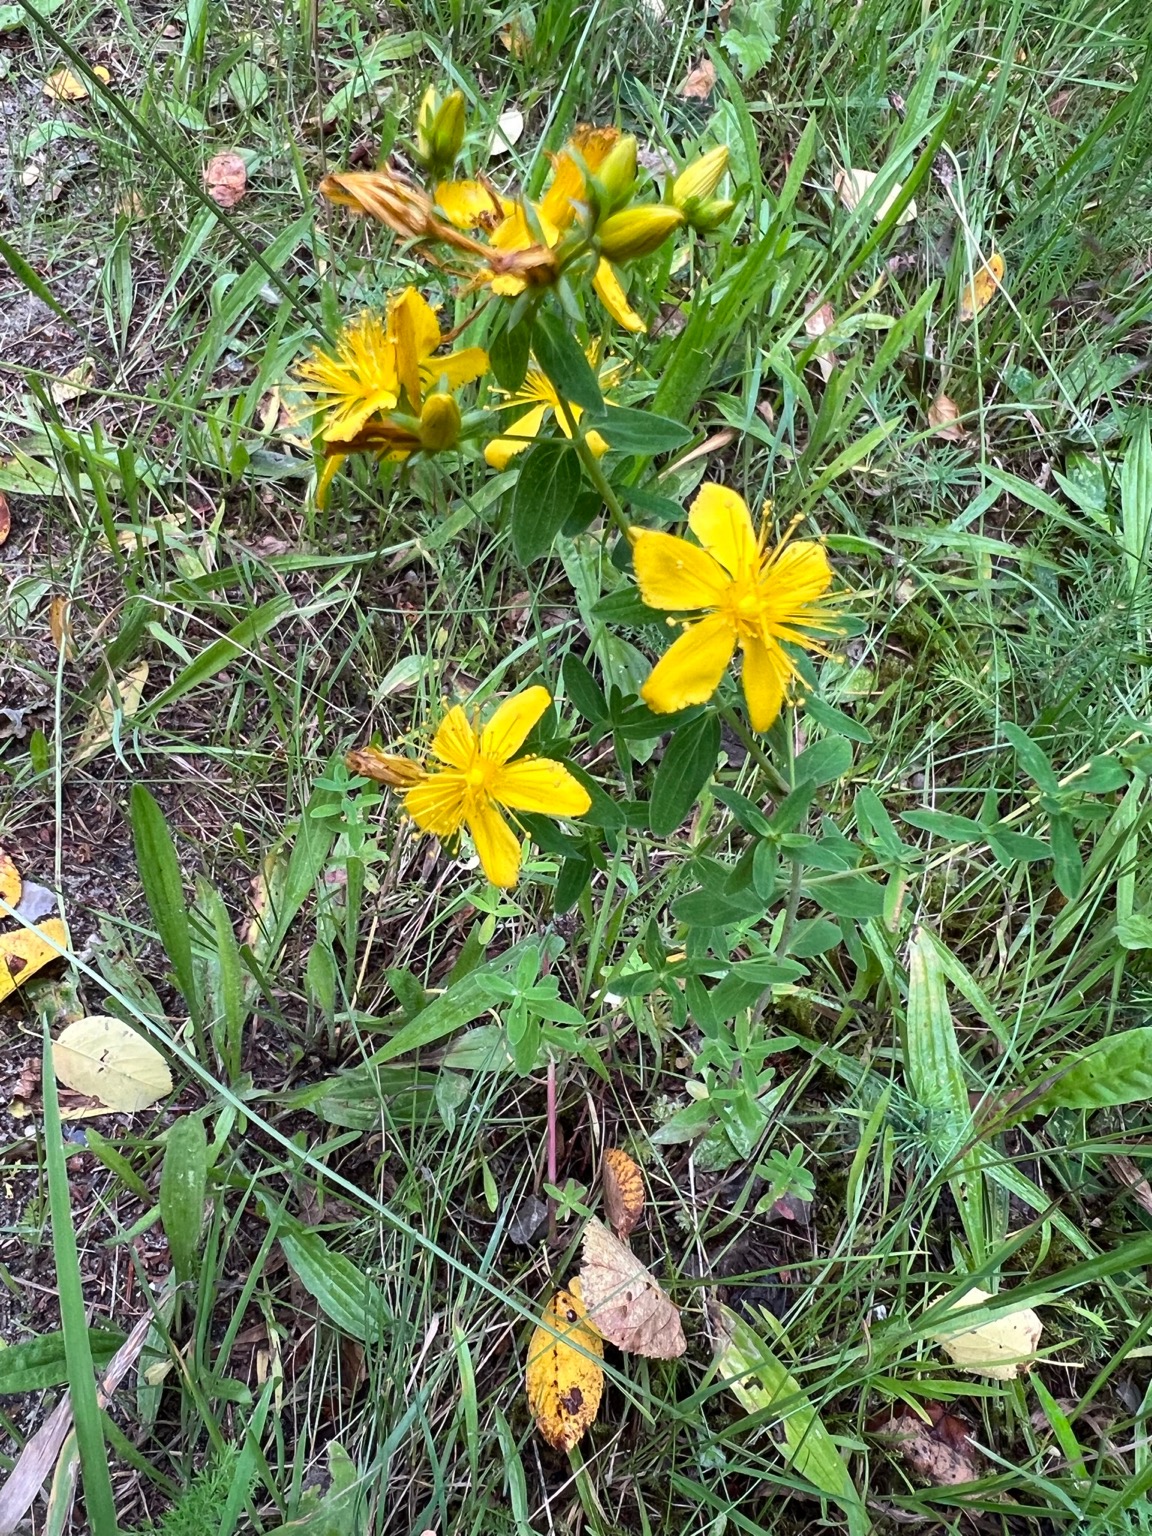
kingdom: Plantae
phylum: Tracheophyta
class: Magnoliopsida
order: Malpighiales
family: Hypericaceae
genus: Hypericum
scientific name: Hypericum perforatum
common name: Prikbladet perikon
